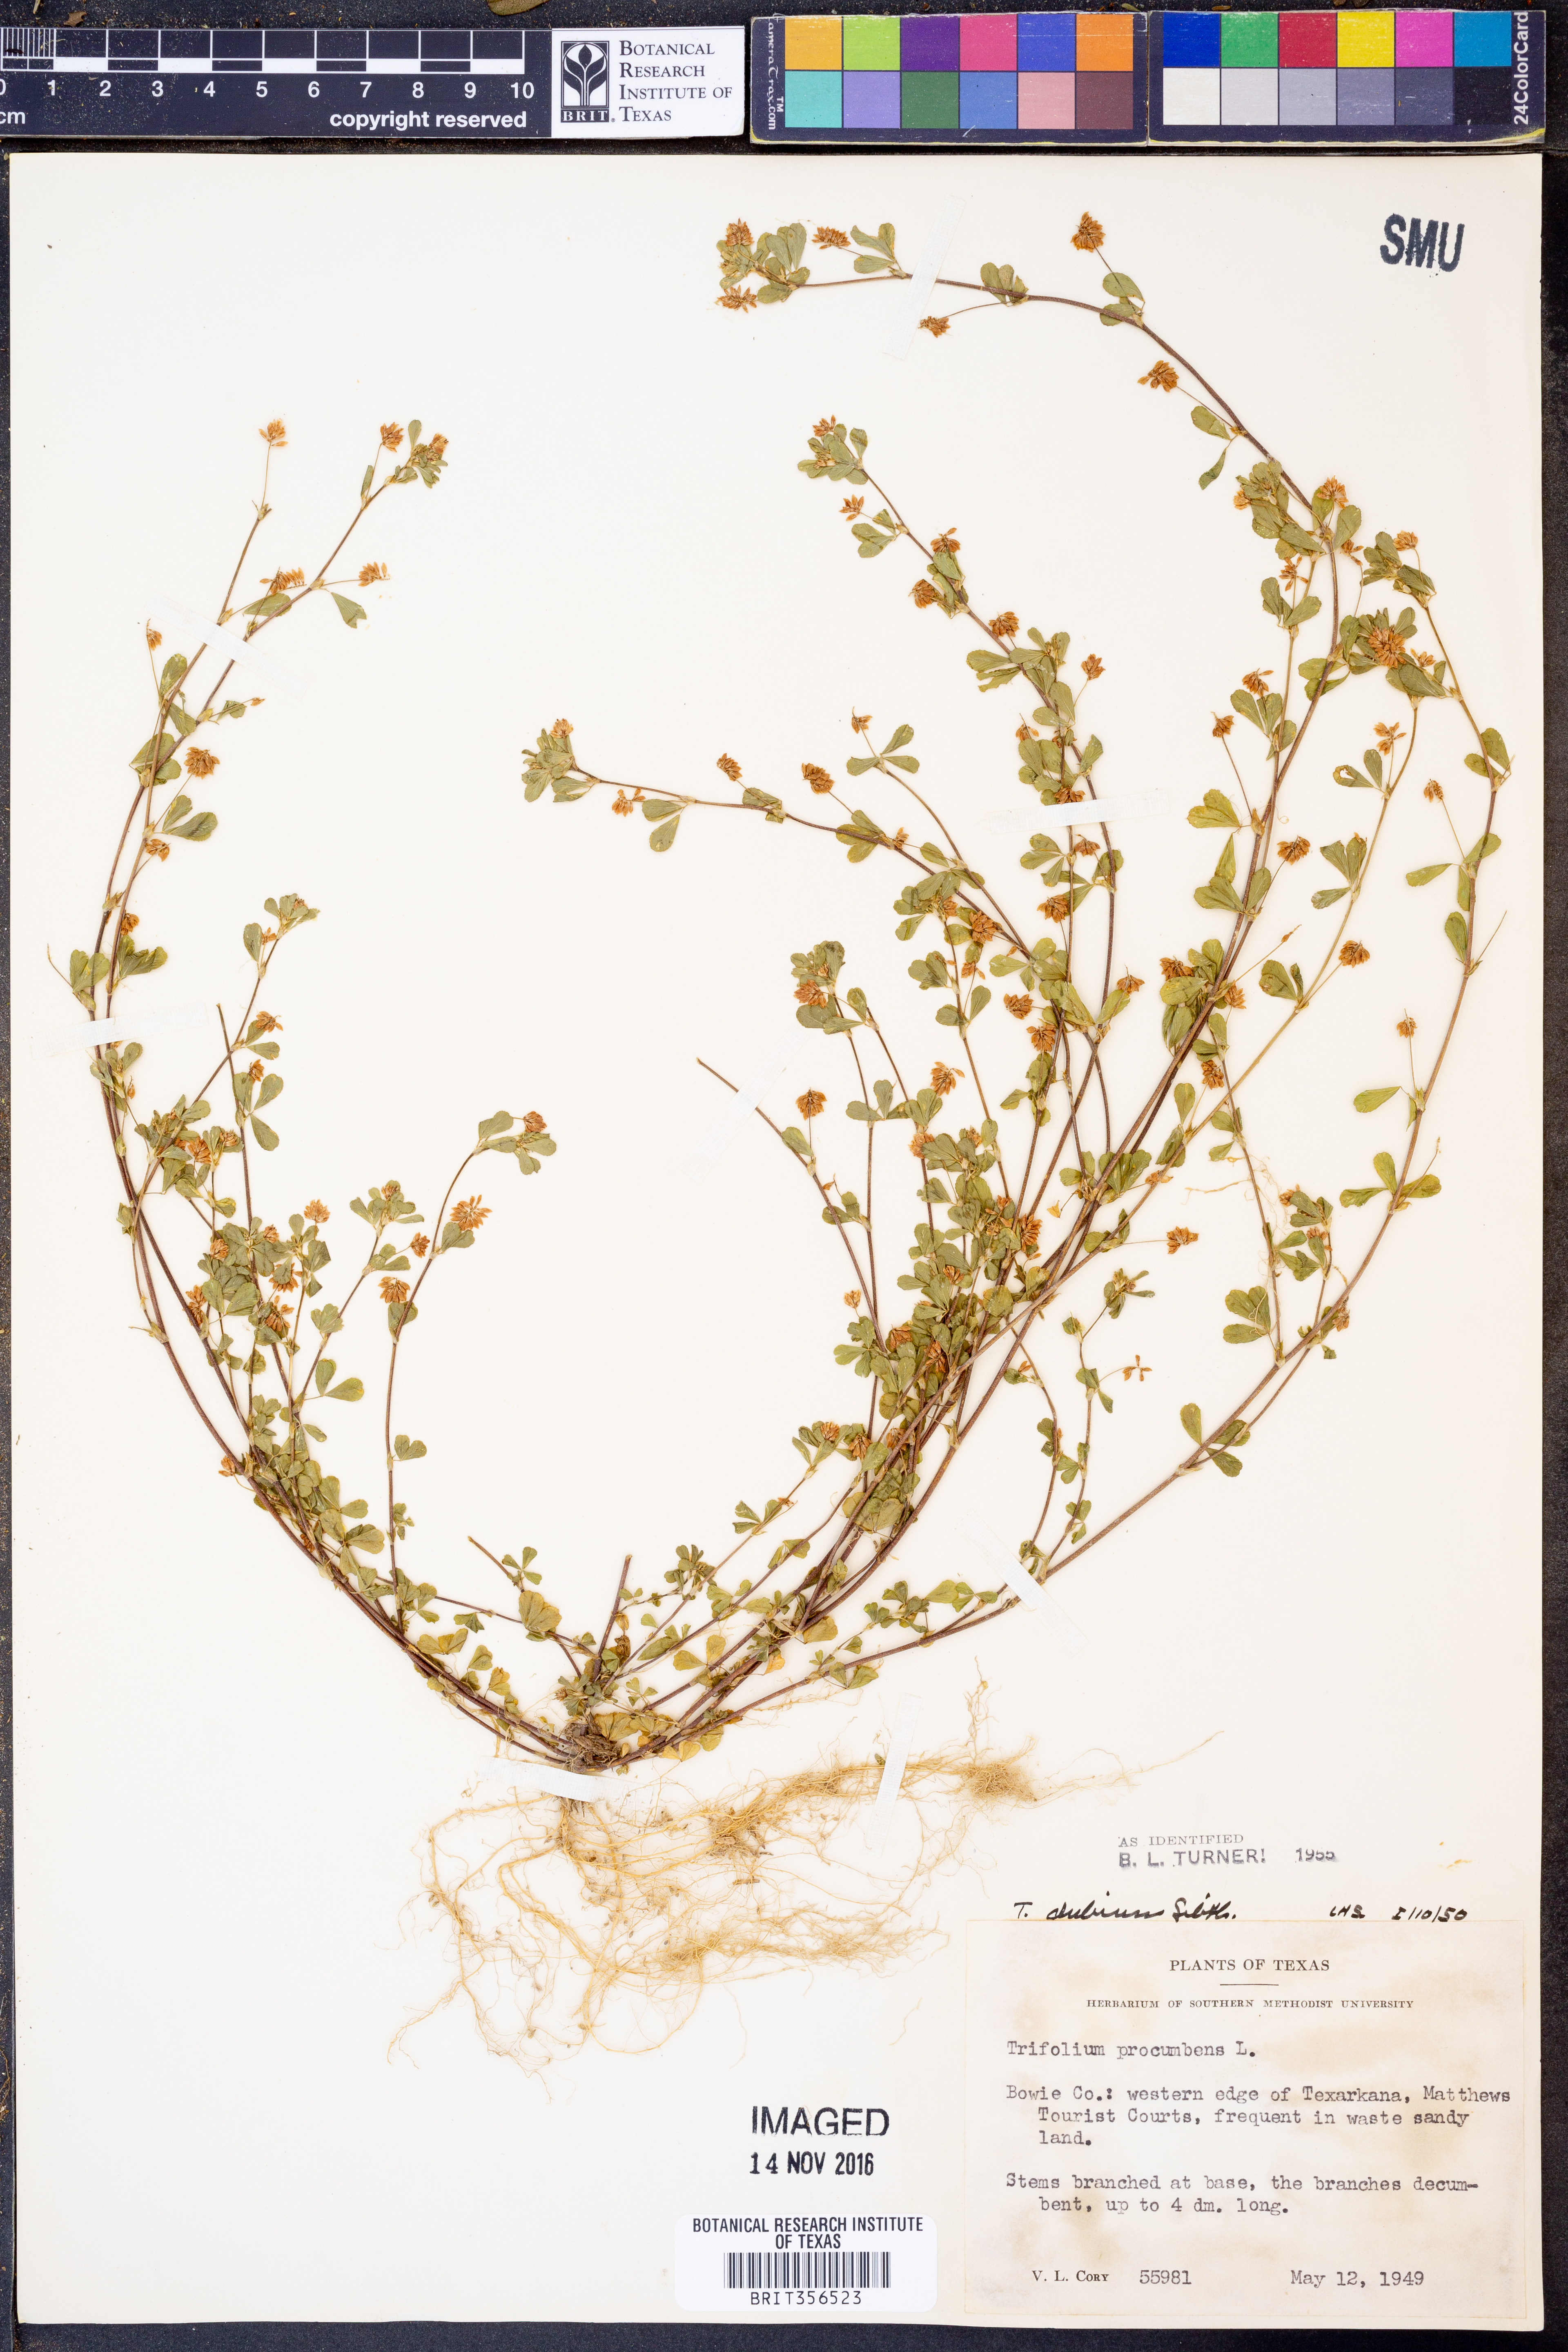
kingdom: Plantae
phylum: Tracheophyta
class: Magnoliopsida
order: Fabales
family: Fabaceae
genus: Trifolium
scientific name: Trifolium dubium
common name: Suckling clover
